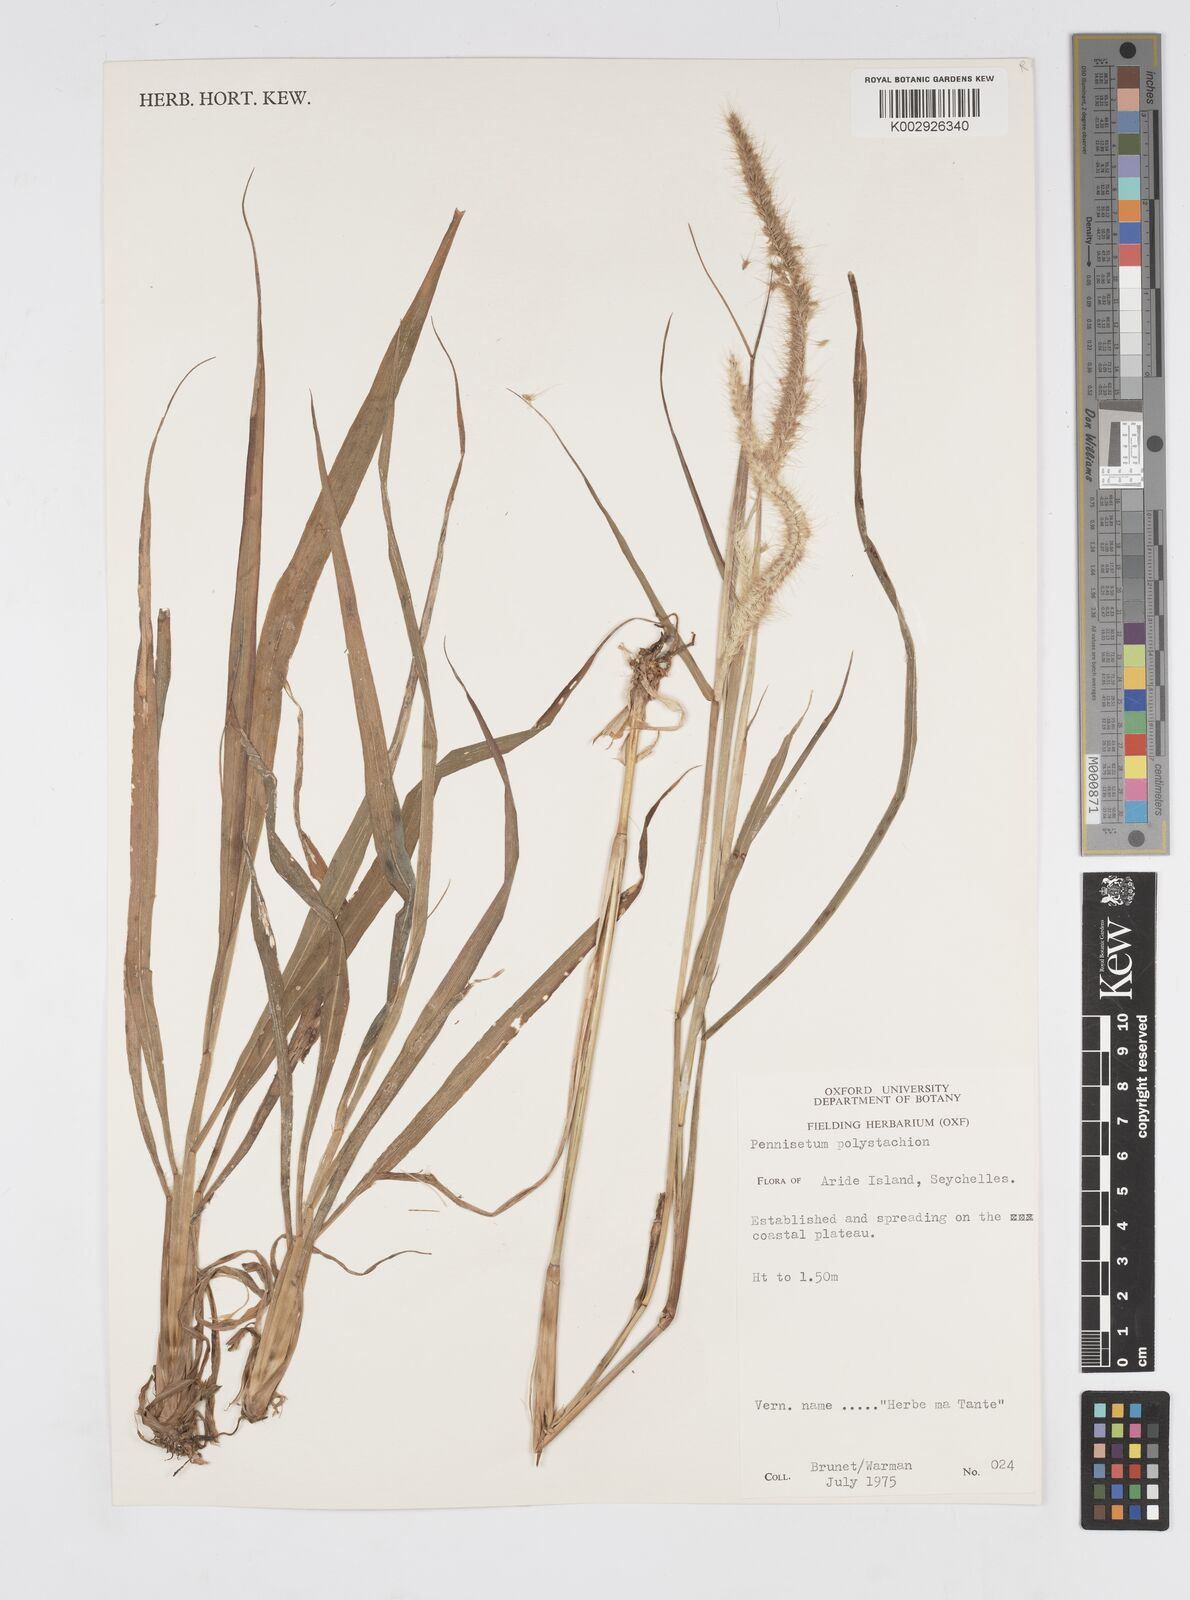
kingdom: Plantae
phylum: Tracheophyta
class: Liliopsida
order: Poales
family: Poaceae
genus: Setaria
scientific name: Setaria parviflora
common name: Knotroot bristle-grass
